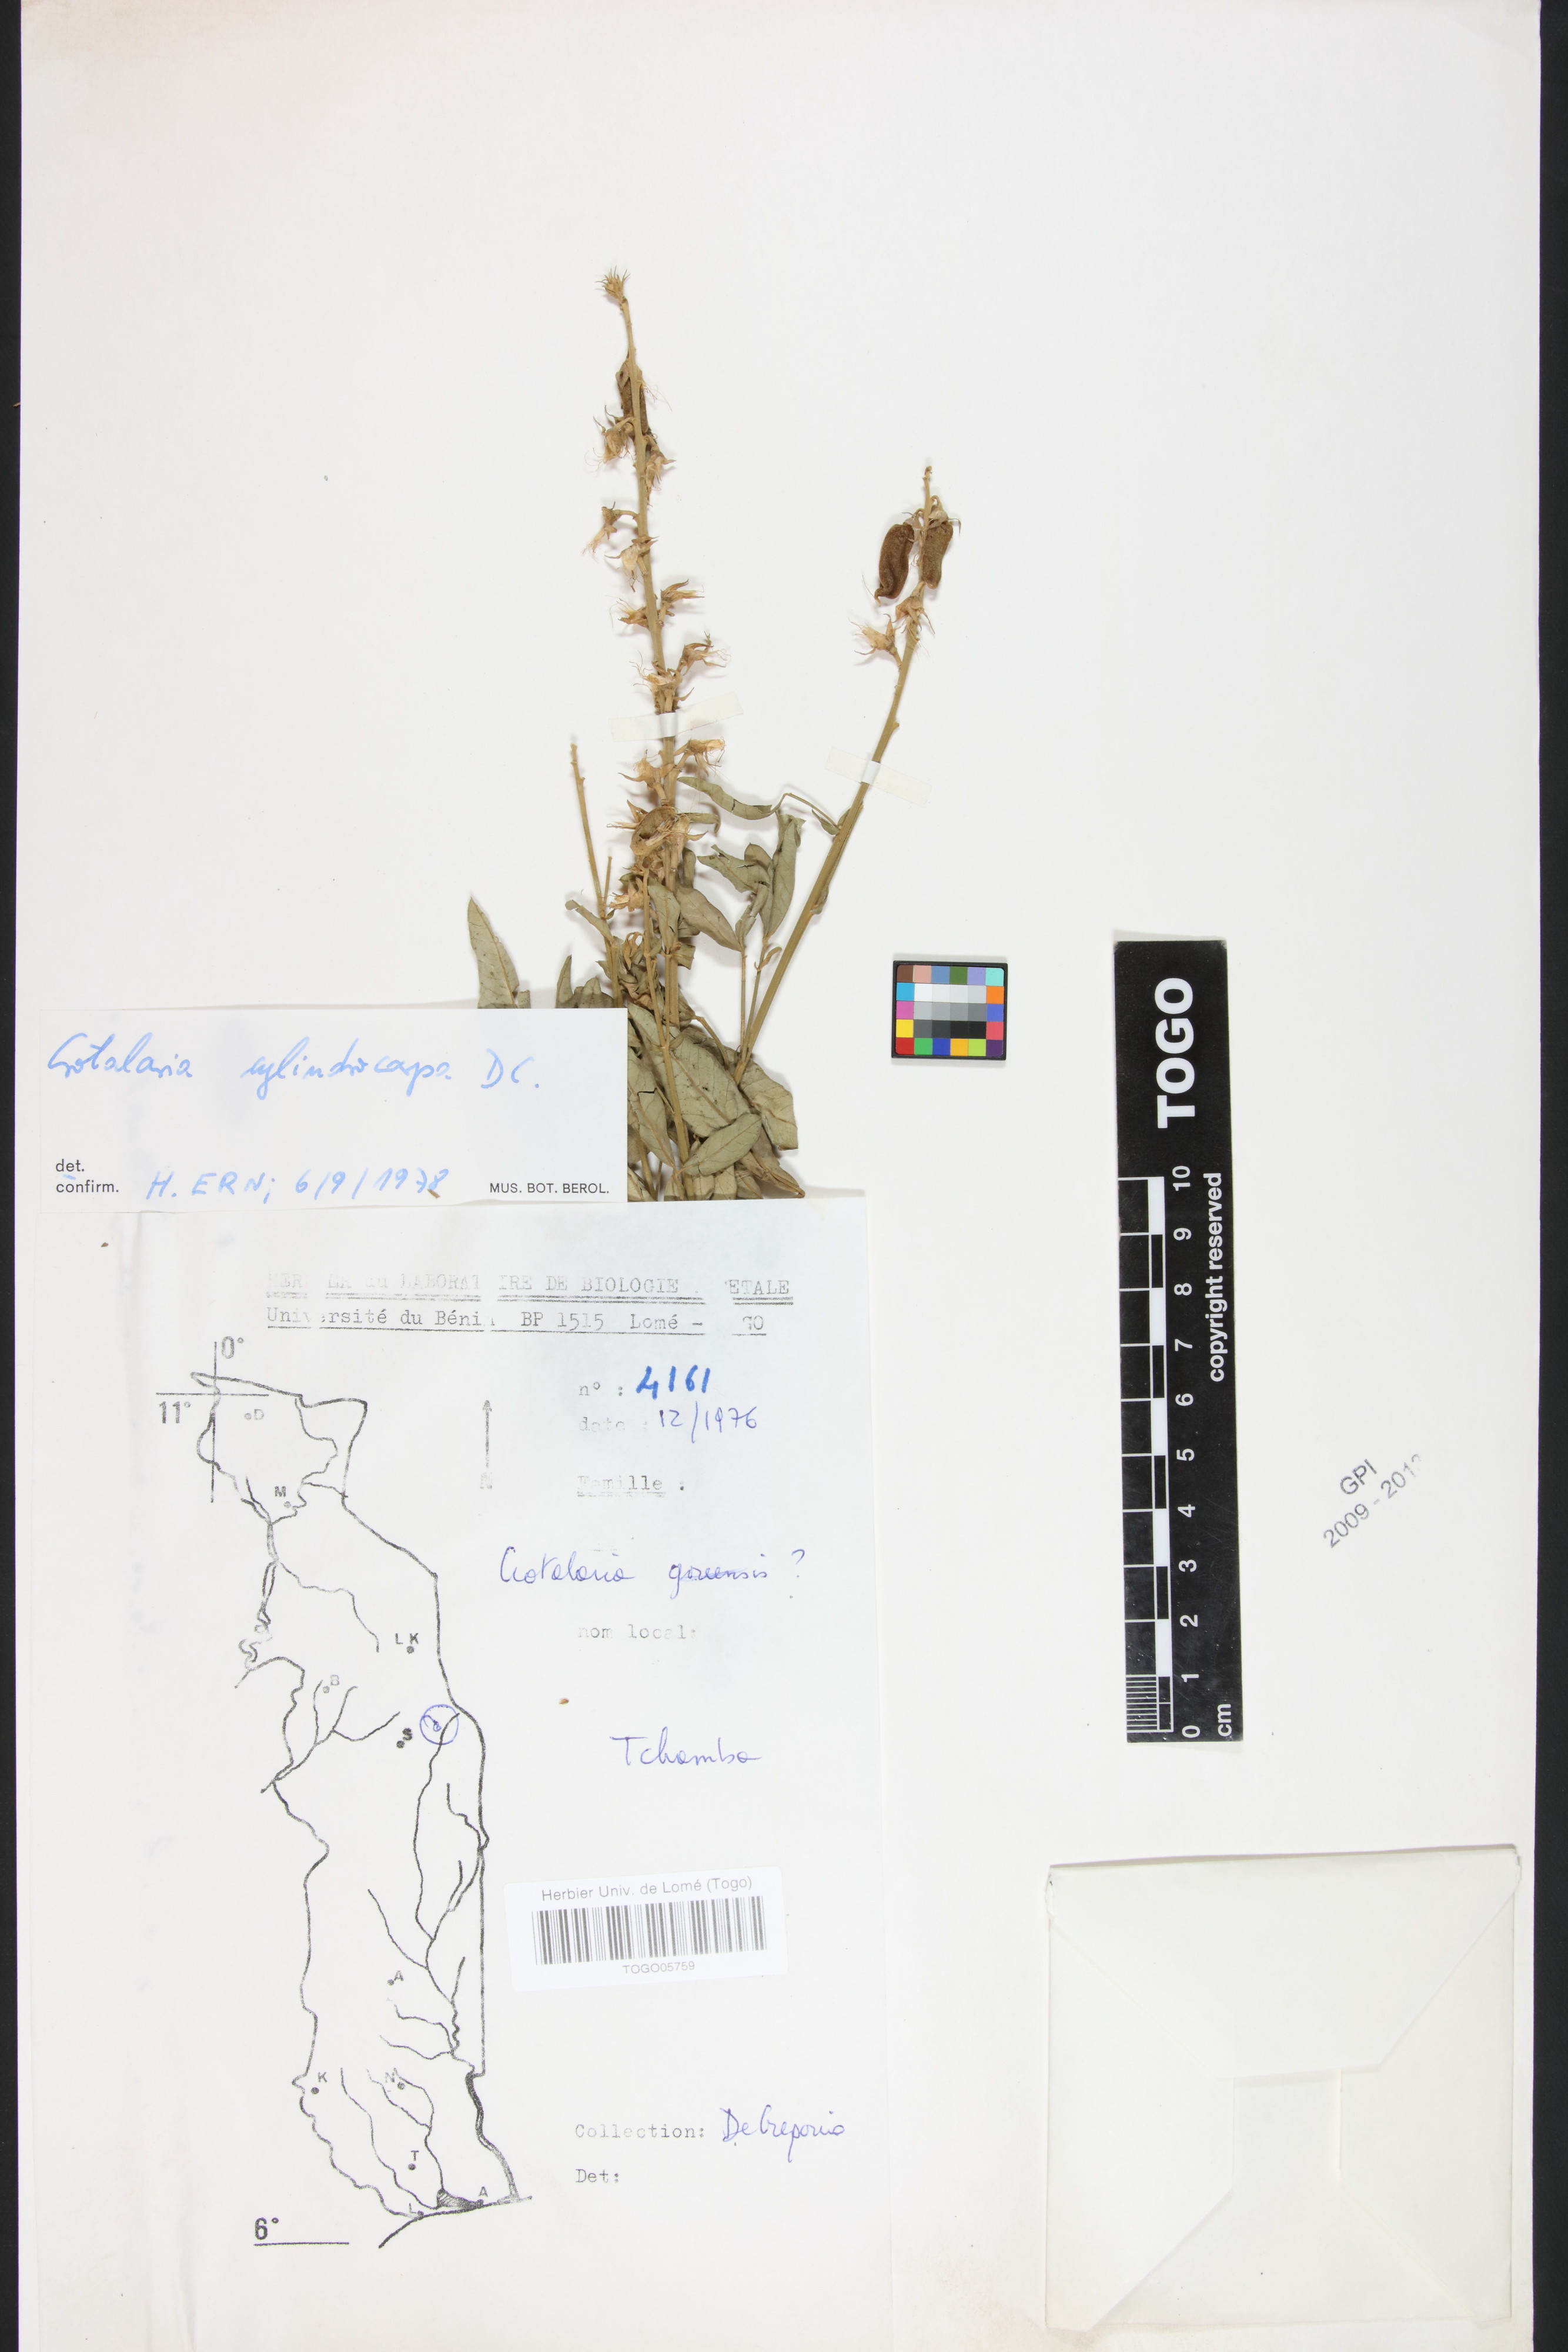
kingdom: Plantae
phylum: Tracheophyta
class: Magnoliopsida
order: Fabales
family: Fabaceae
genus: Crotalaria
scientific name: Crotalaria cylindrocarpa
